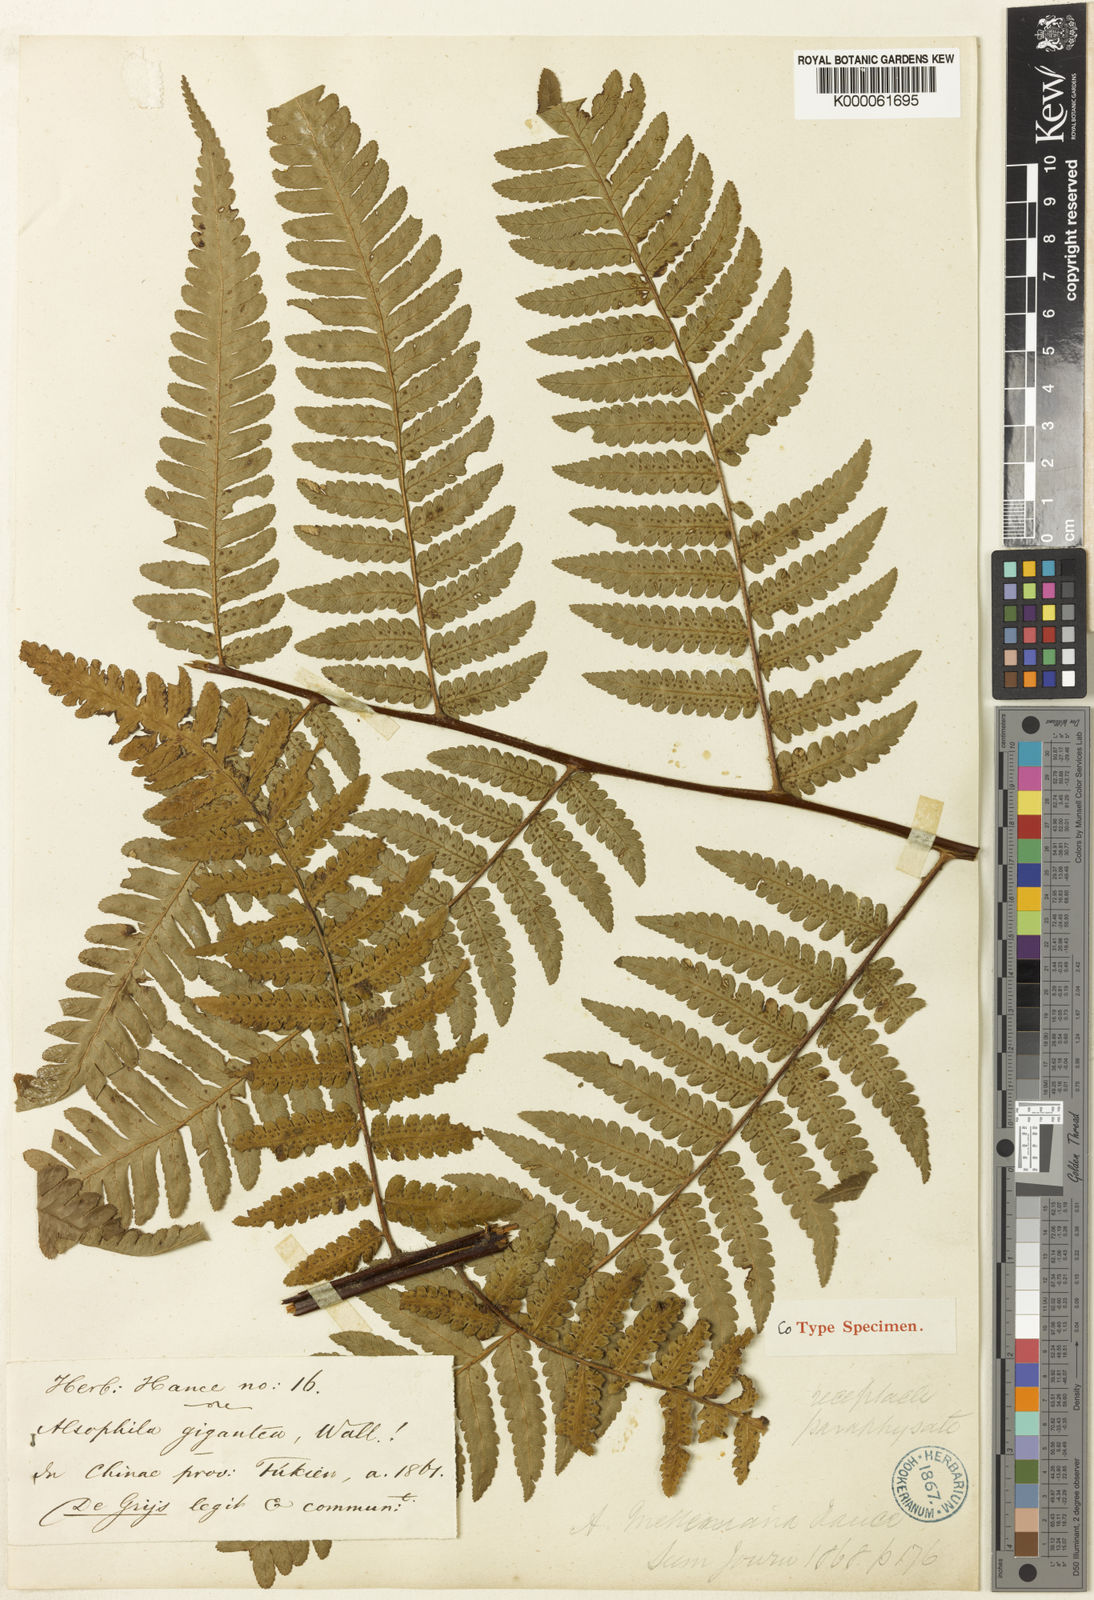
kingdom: Plantae
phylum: Tracheophyta
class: Polypodiopsida
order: Cyatheales
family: Cyatheaceae
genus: Gymnosphaera
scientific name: Gymnosphaera metteniana
